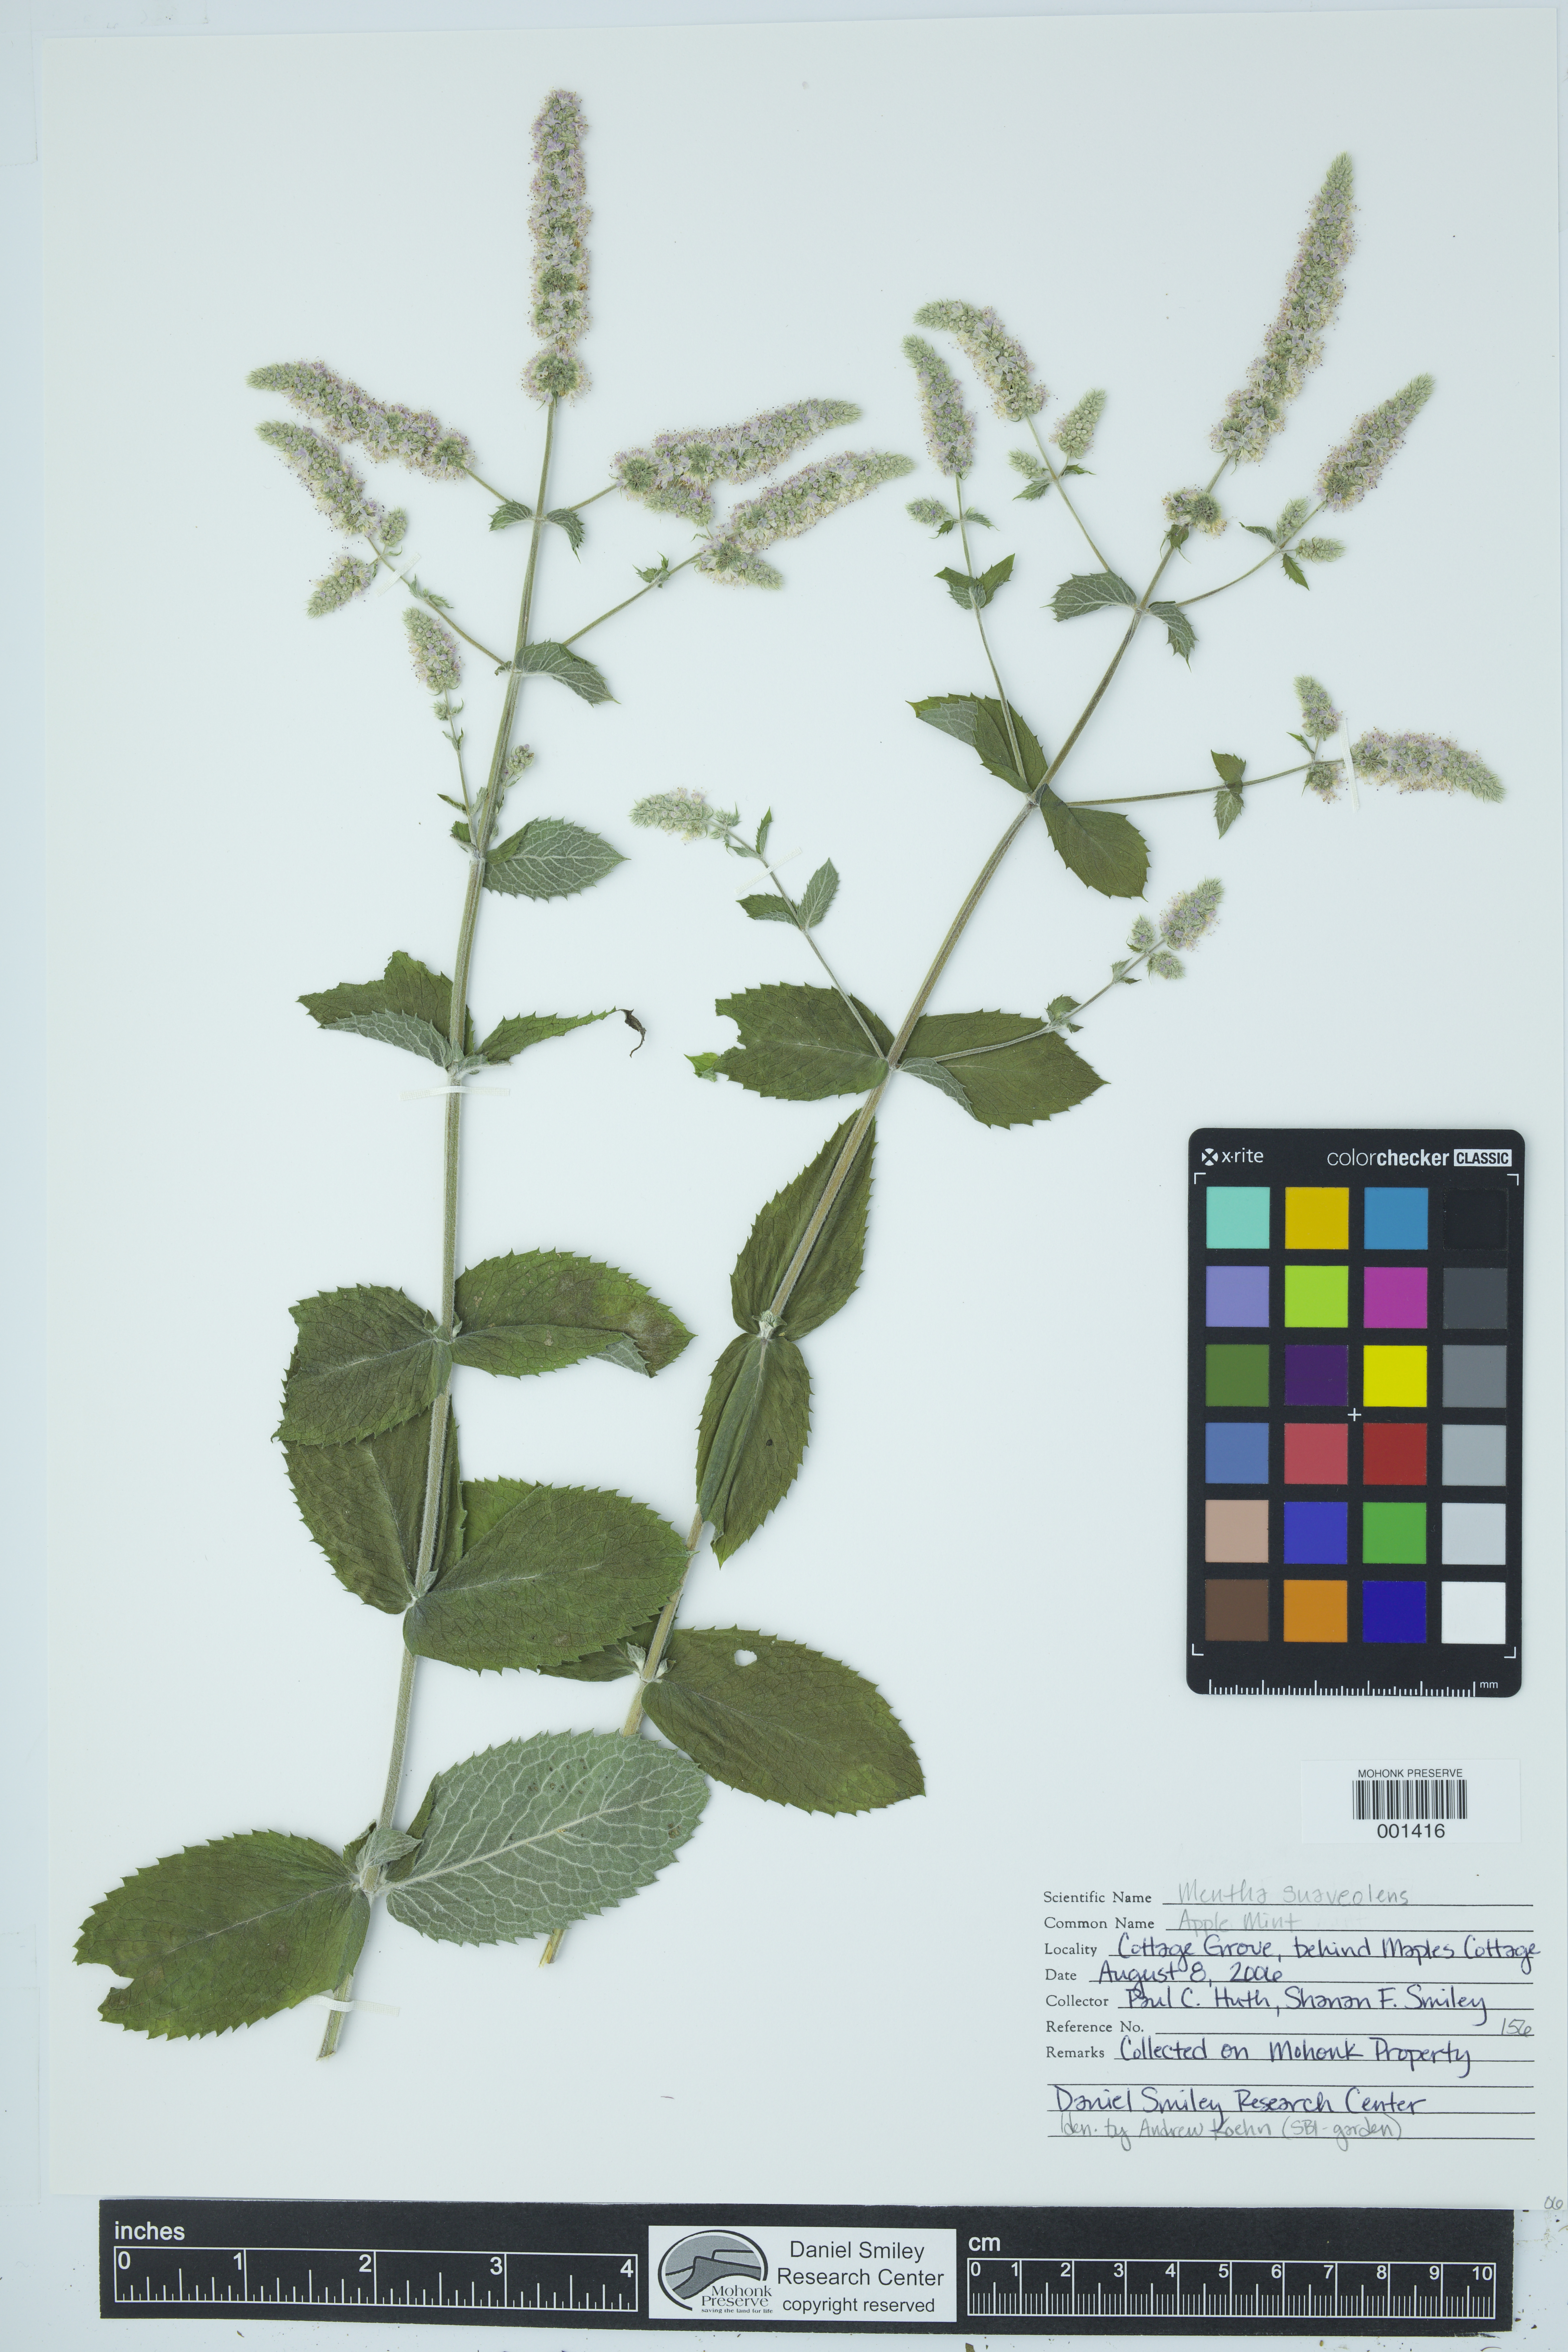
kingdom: Plantae
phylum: Tracheophyta
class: Magnoliopsida
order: Lamiales
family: Lamiaceae
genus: Mentha
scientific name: Mentha suaveolens
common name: Apple mint
